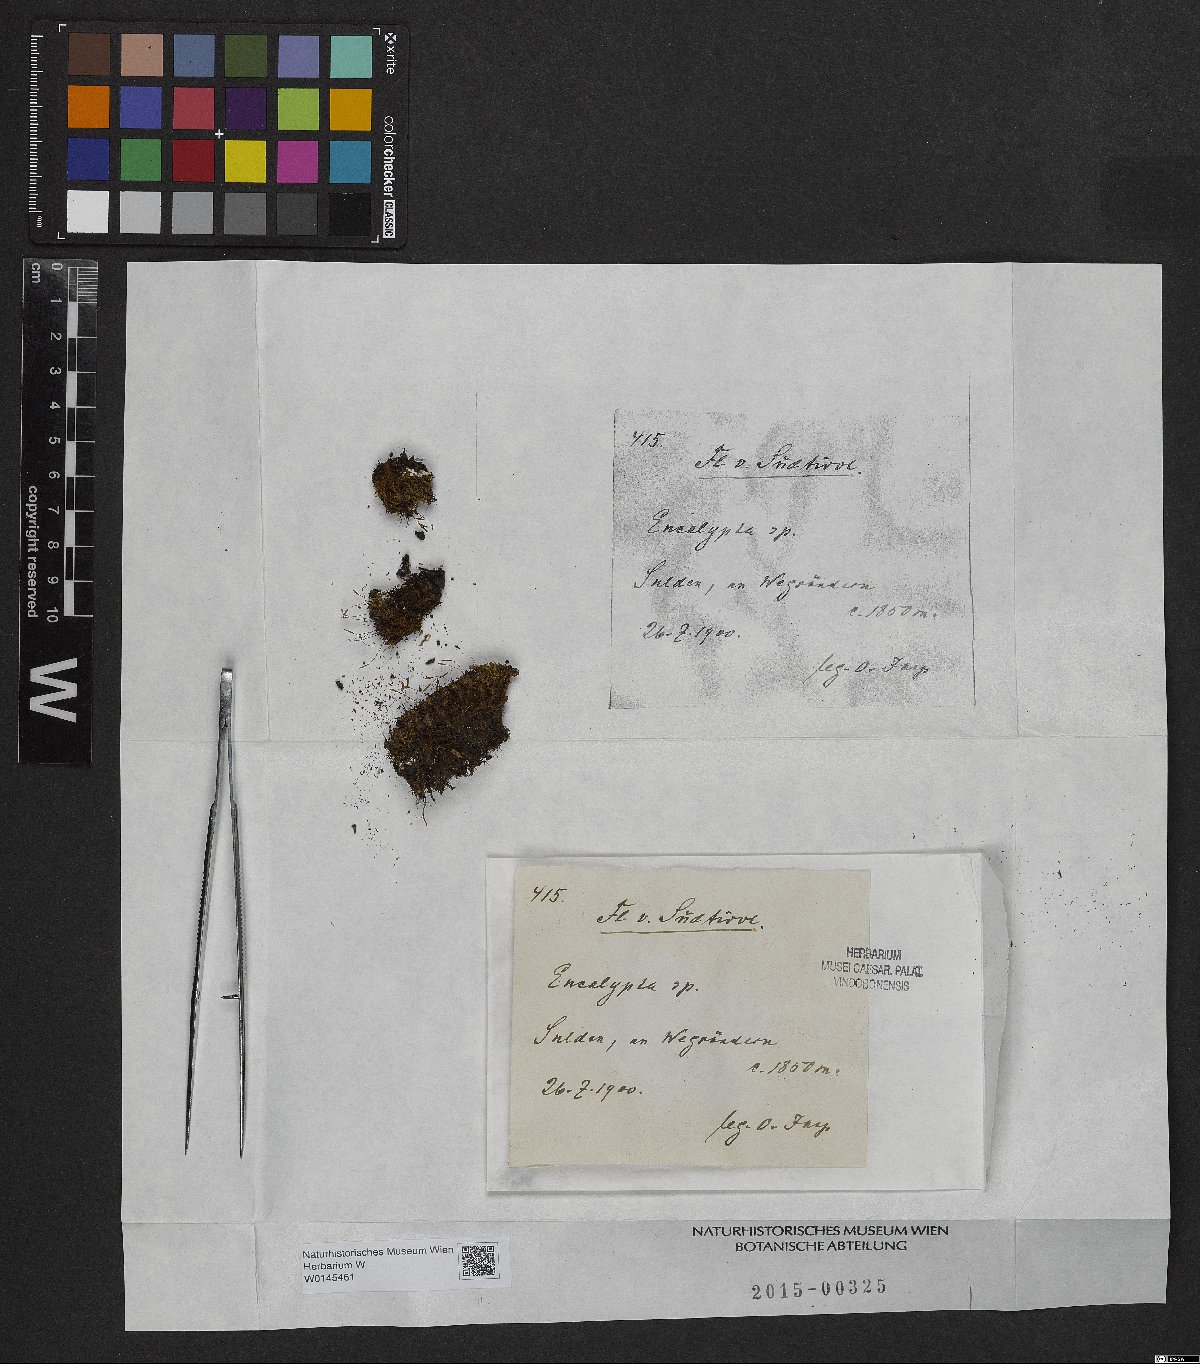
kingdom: Plantae
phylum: Bryophyta
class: Bryopsida
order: Encalyptales
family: Encalyptaceae
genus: Encalypta
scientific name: Encalypta
